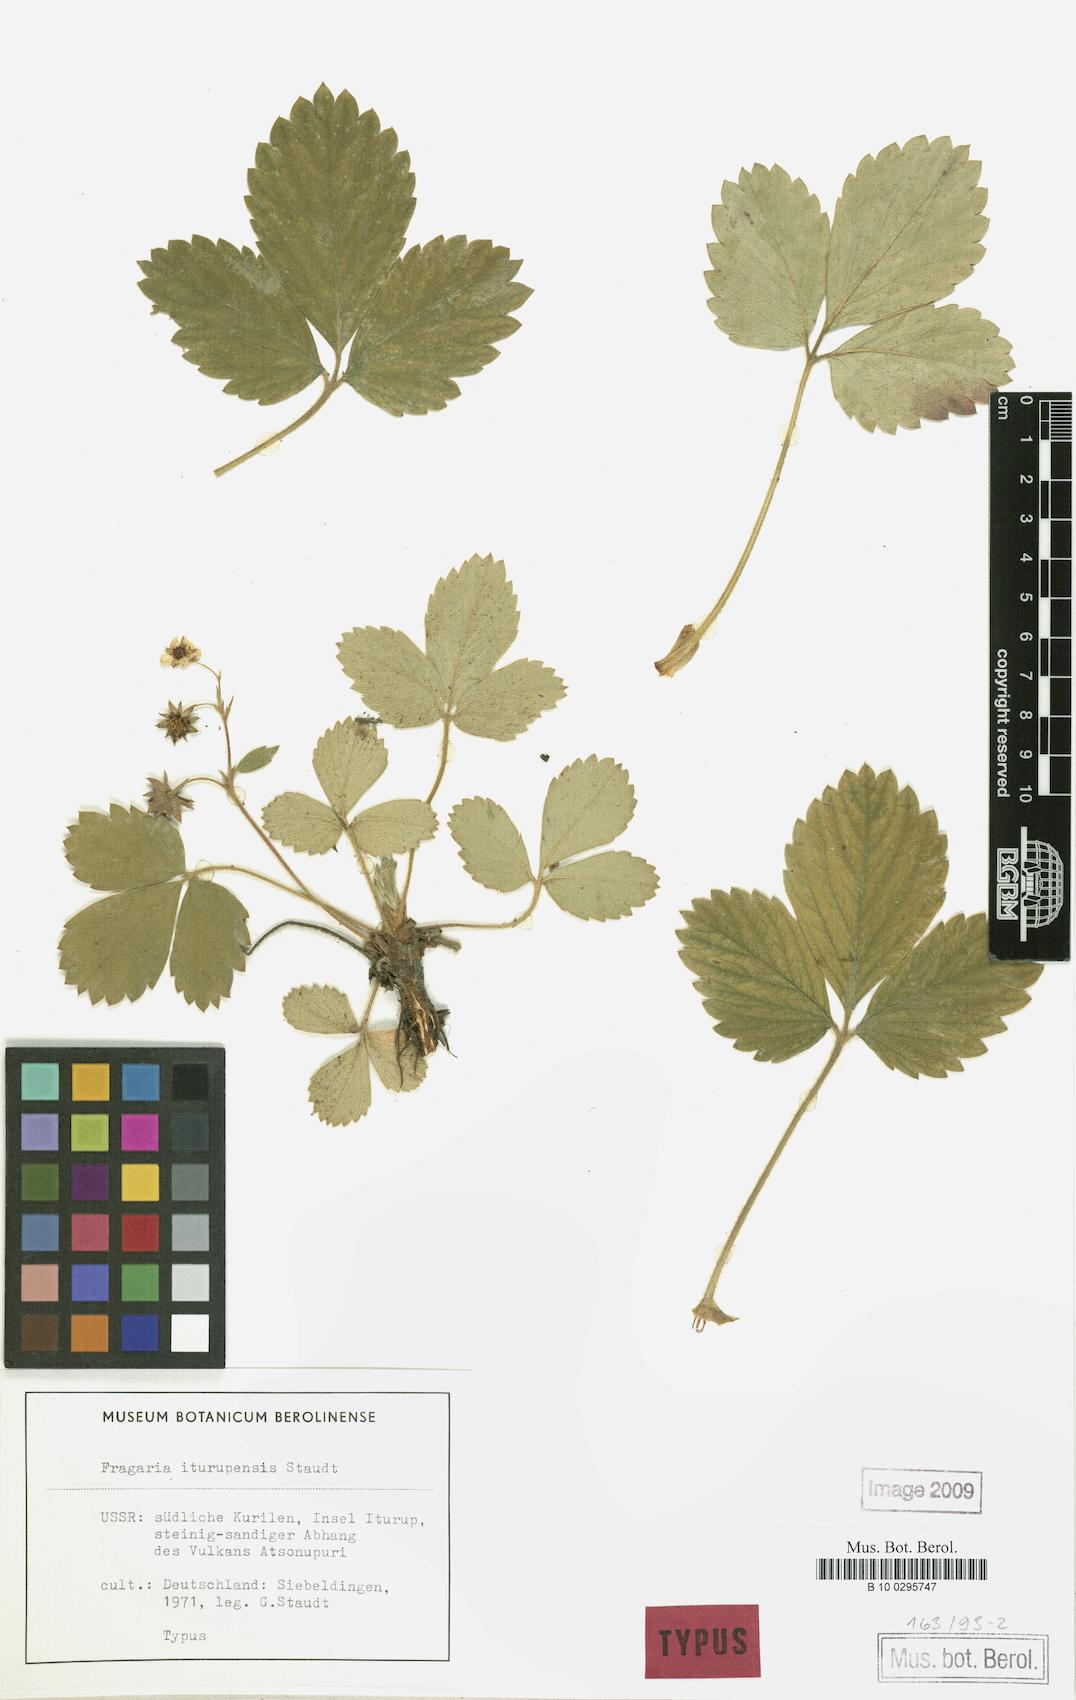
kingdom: Plantae
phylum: Tracheophyta
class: Magnoliopsida
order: Rosales
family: Rosaceae
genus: Fragaria
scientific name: Fragaria iturupensis
